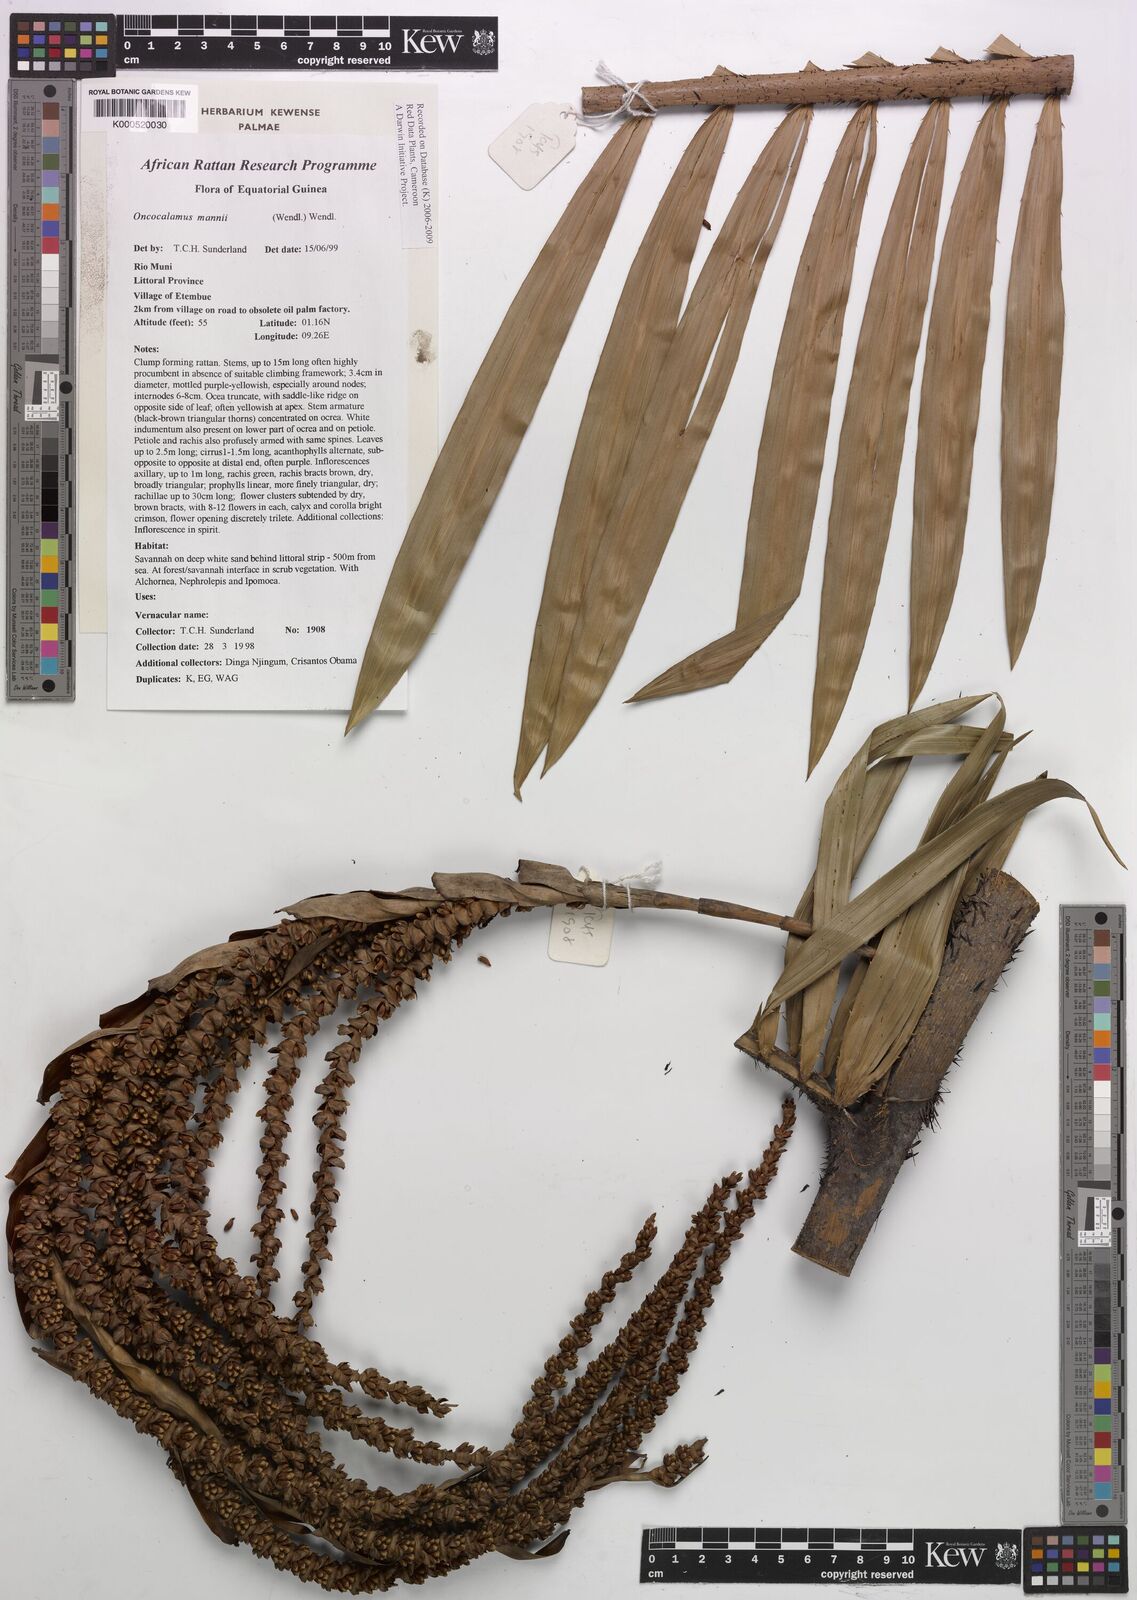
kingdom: Plantae
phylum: Tracheophyta
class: Liliopsida
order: Arecales
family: Arecaceae
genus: Oncocalamus
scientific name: Oncocalamus mannii
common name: Rattan
